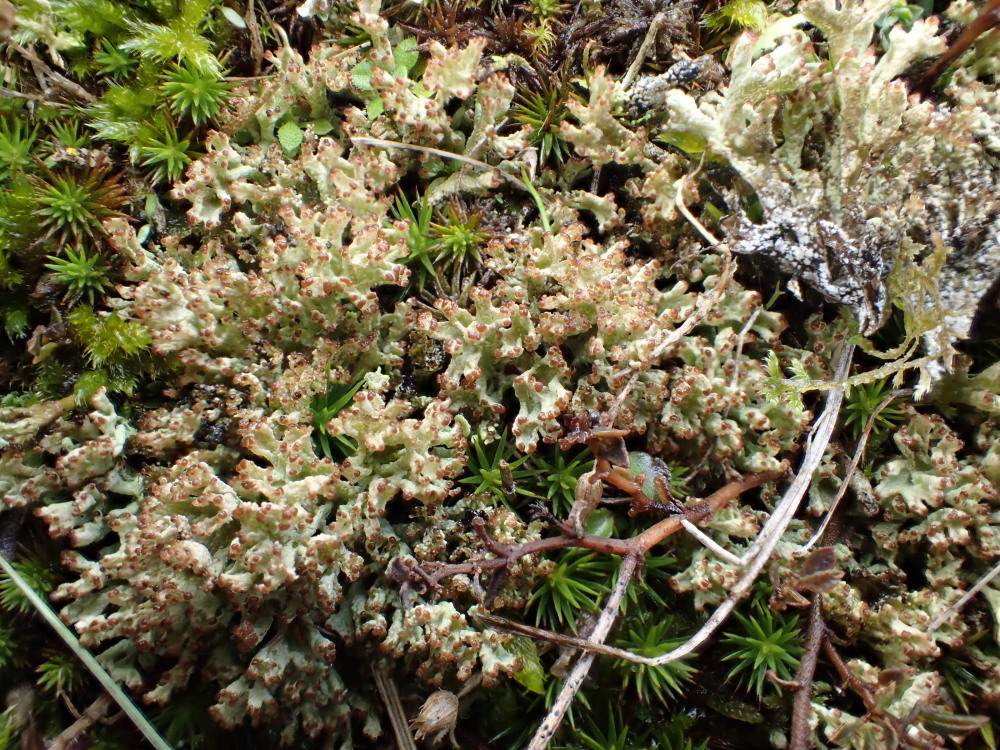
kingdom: Fungi
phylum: Ascomycota
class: Lecanoromycetes
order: Lecanorales
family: Cladoniaceae
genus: Cladonia
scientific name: Cladonia ramulosa
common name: kliddet bægerlav
